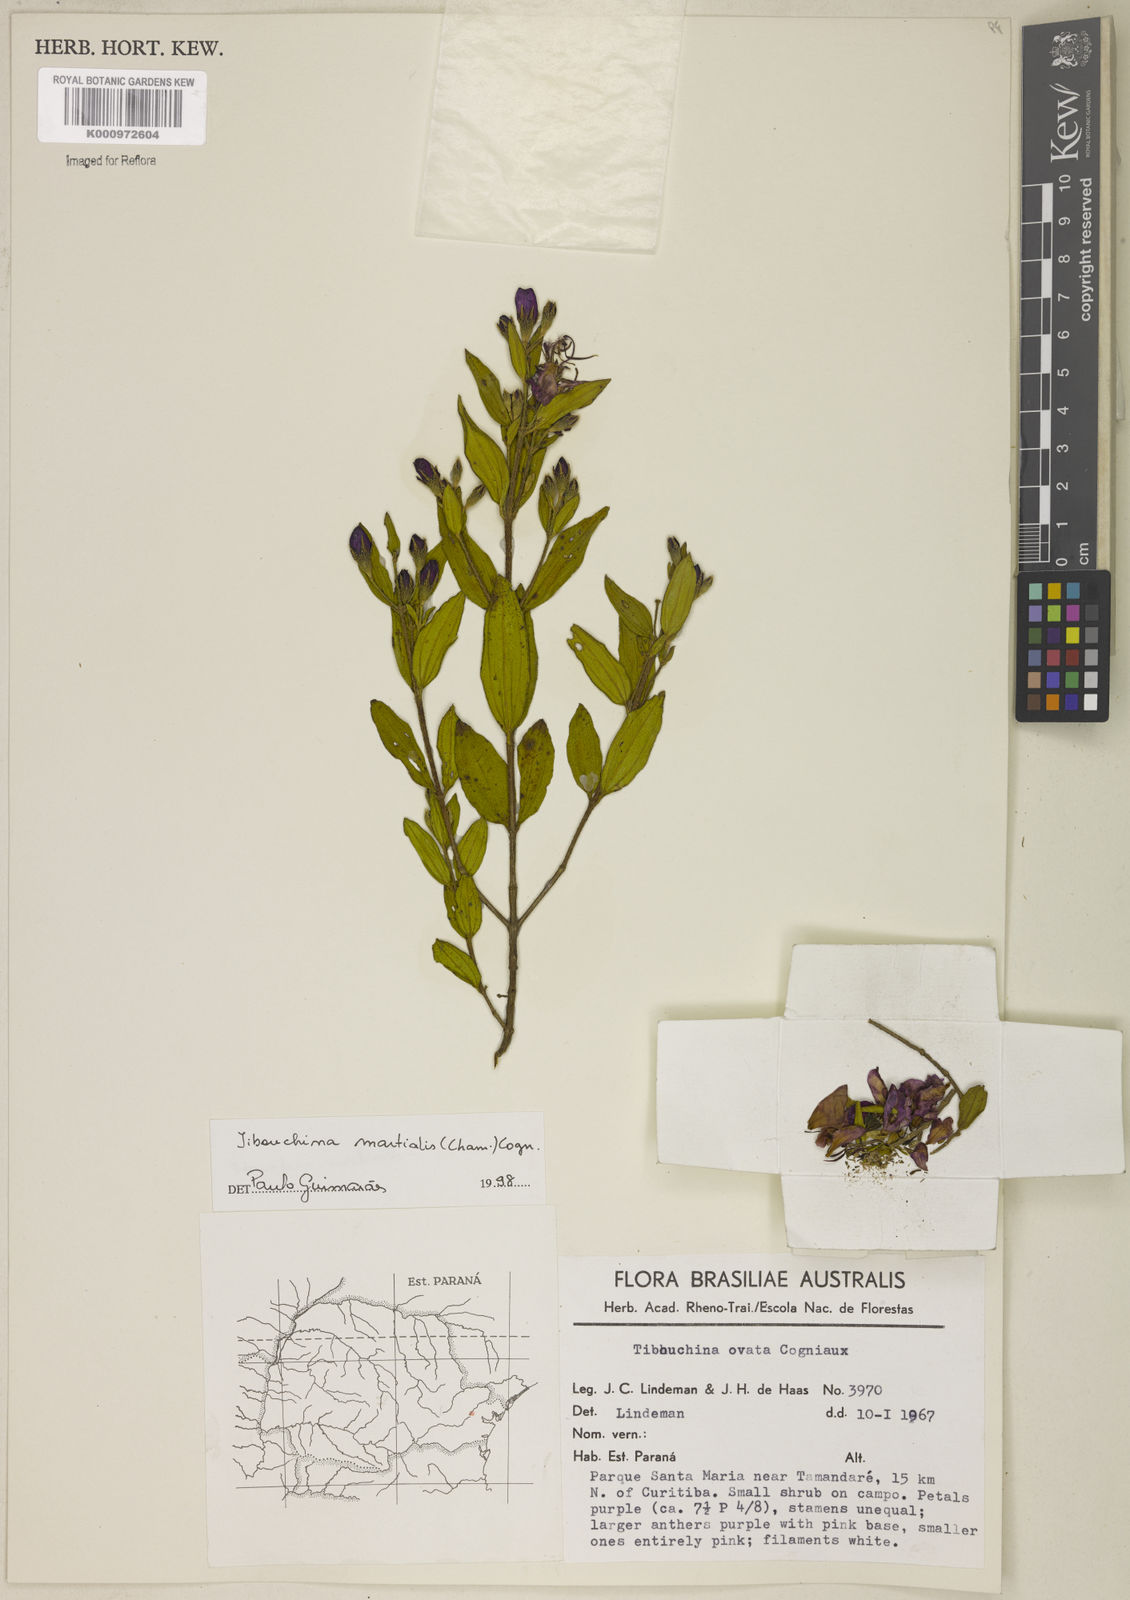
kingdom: Plantae
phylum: Tracheophyta
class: Magnoliopsida
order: Myrtales
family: Melastomataceae
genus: Pleroma
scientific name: Pleroma martiale
